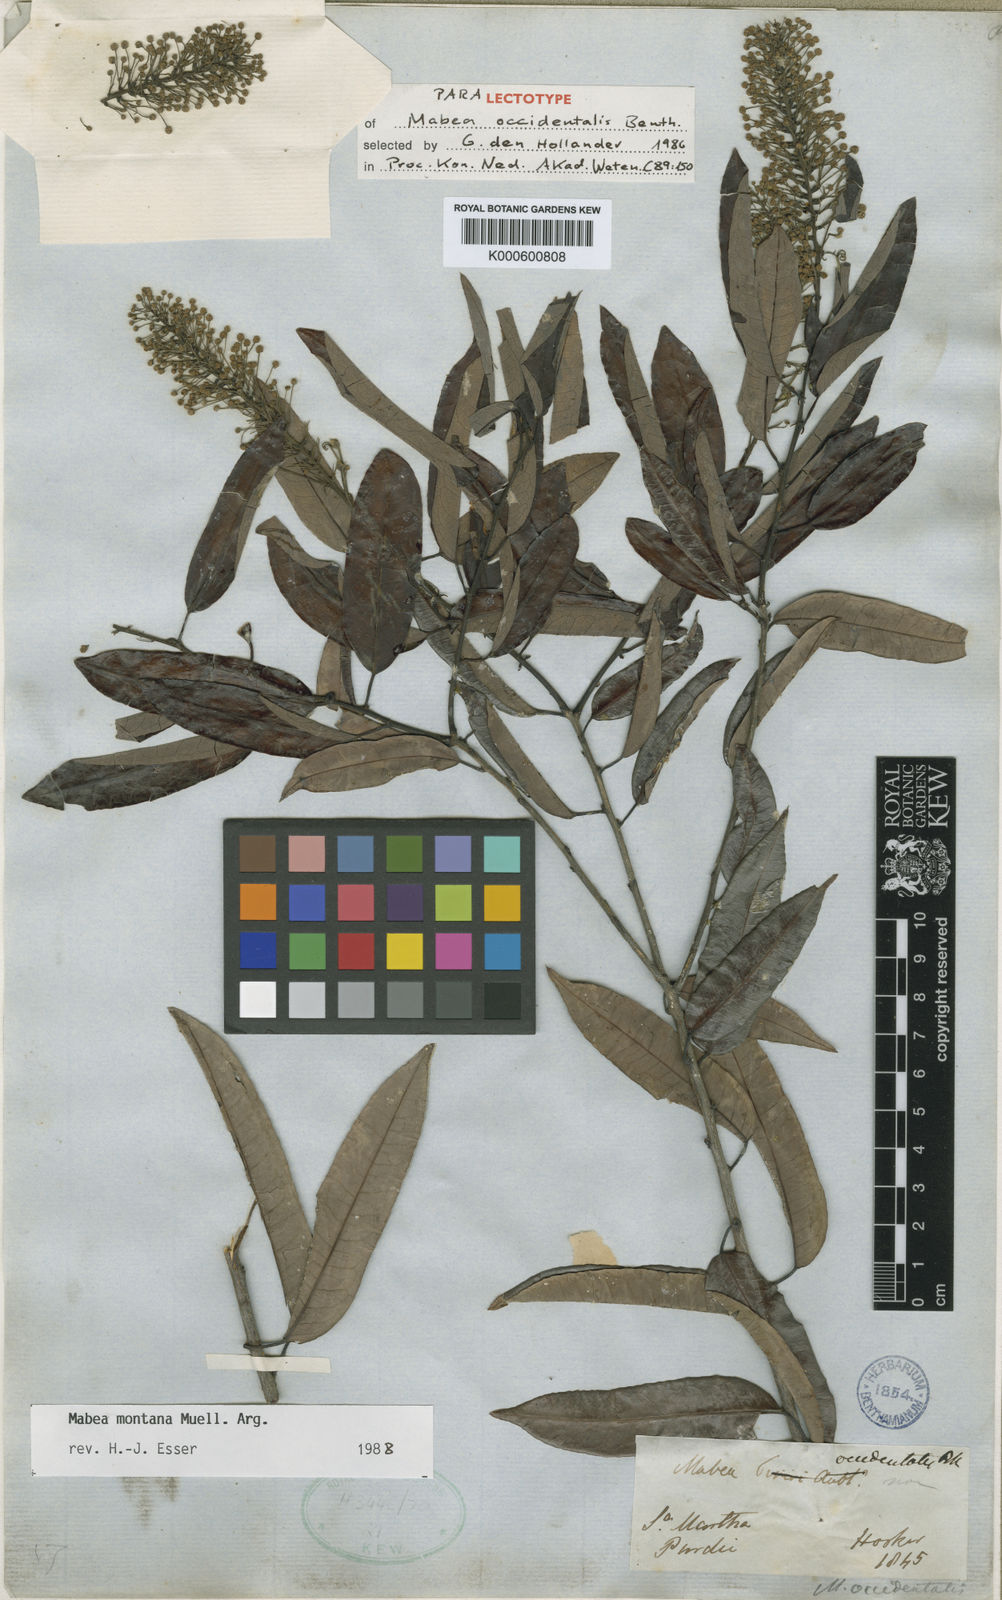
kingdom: Plantae
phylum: Tracheophyta
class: Magnoliopsida
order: Malpighiales
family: Euphorbiaceae
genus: Mabea
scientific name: Mabea occidentalis
